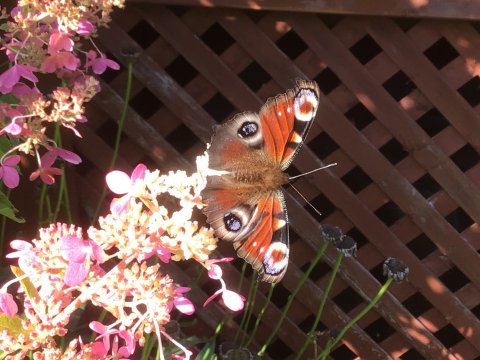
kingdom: Animalia
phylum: Arthropoda
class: Insecta
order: Lepidoptera
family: Nymphalidae
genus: Aglais
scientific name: Aglais io
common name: European Peacock
